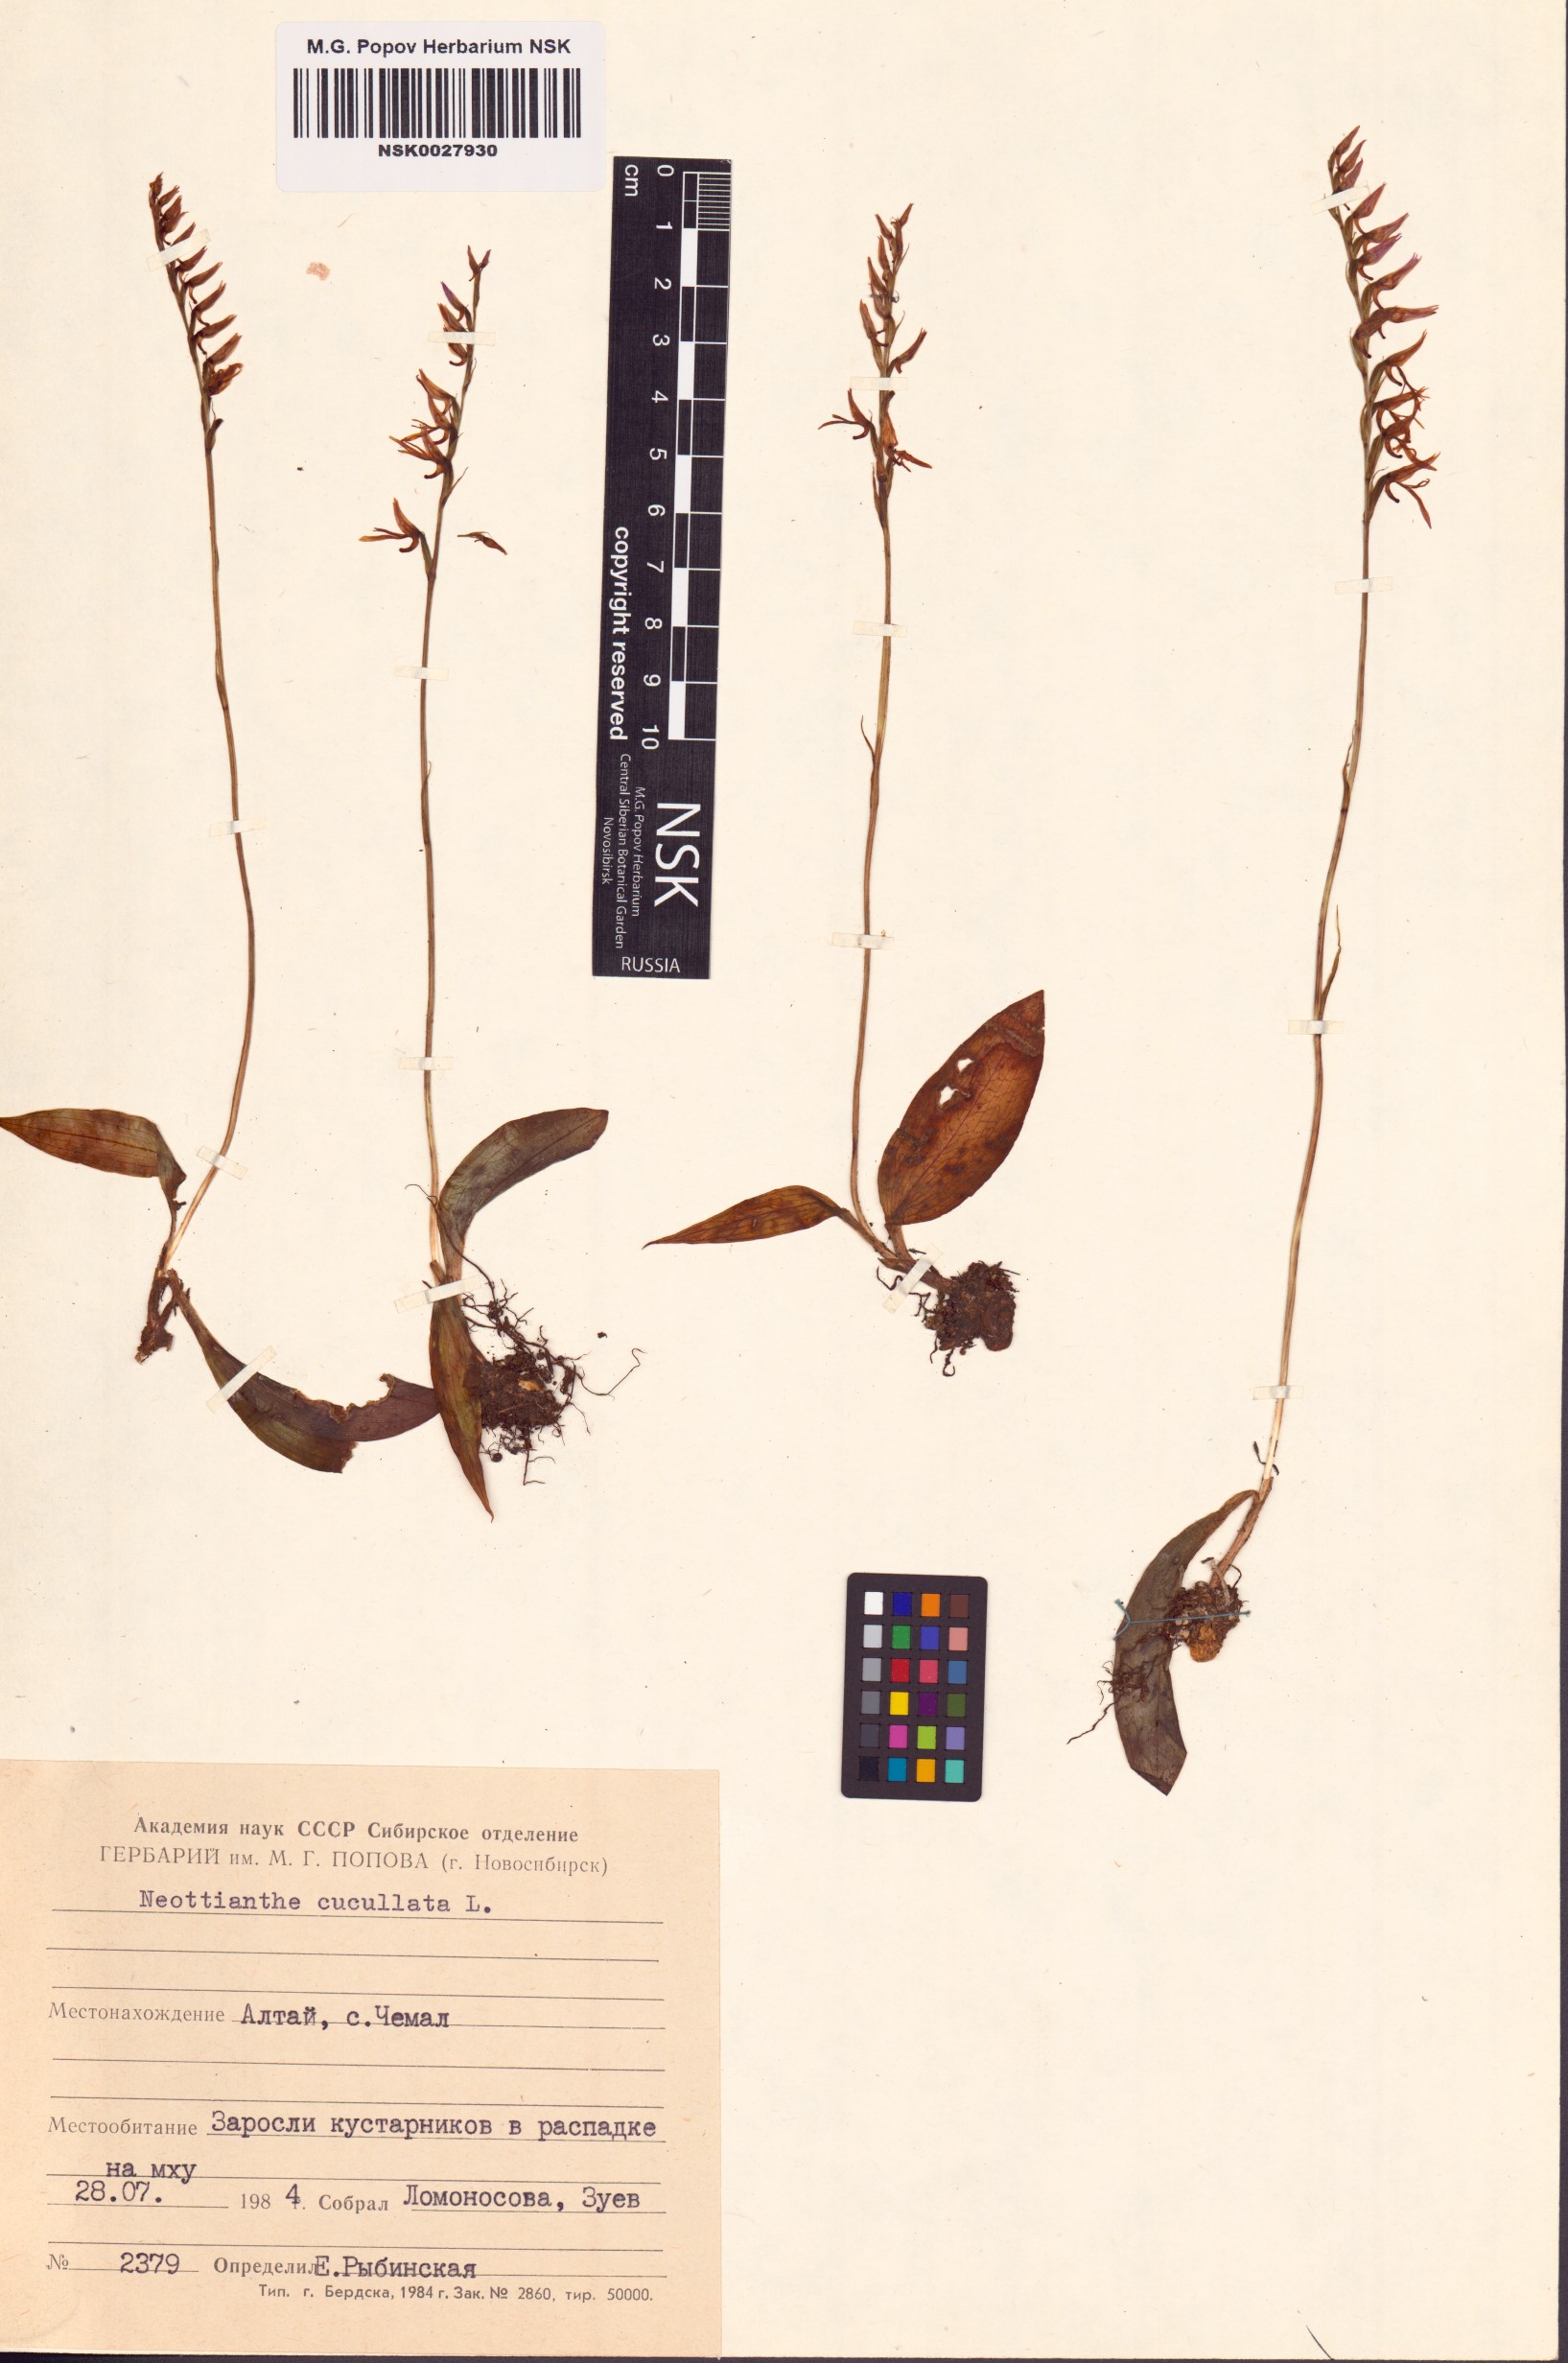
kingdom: Plantae
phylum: Tracheophyta
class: Liliopsida
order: Asparagales
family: Orchidaceae
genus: Hemipilia
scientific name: Hemipilia cucullata
